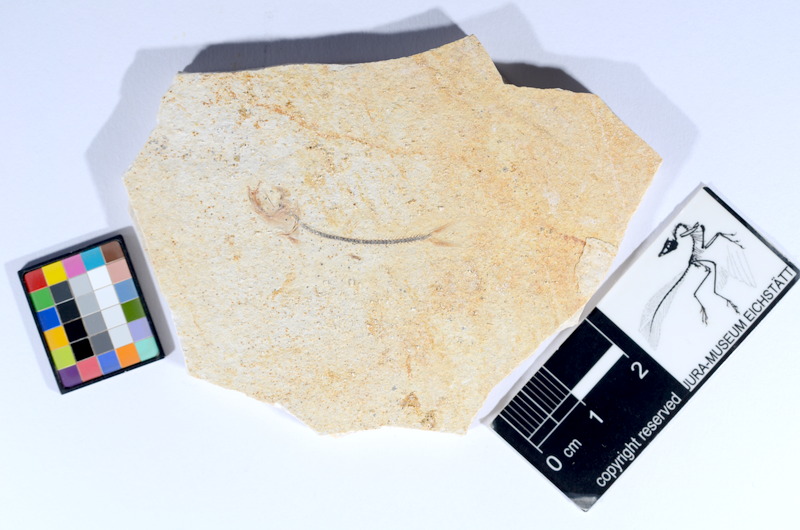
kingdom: Animalia
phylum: Chordata
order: Salmoniformes
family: Orthogonikleithridae
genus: Orthogonikleithrus
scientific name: Orthogonikleithrus hoelli
